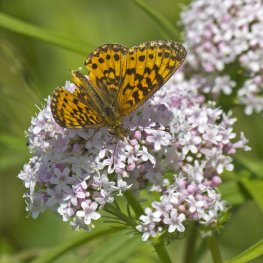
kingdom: Animalia
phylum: Arthropoda
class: Insecta
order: Lepidoptera
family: Nymphalidae
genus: Boloria
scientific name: Boloria selene
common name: Silver-bordered Fritillary
